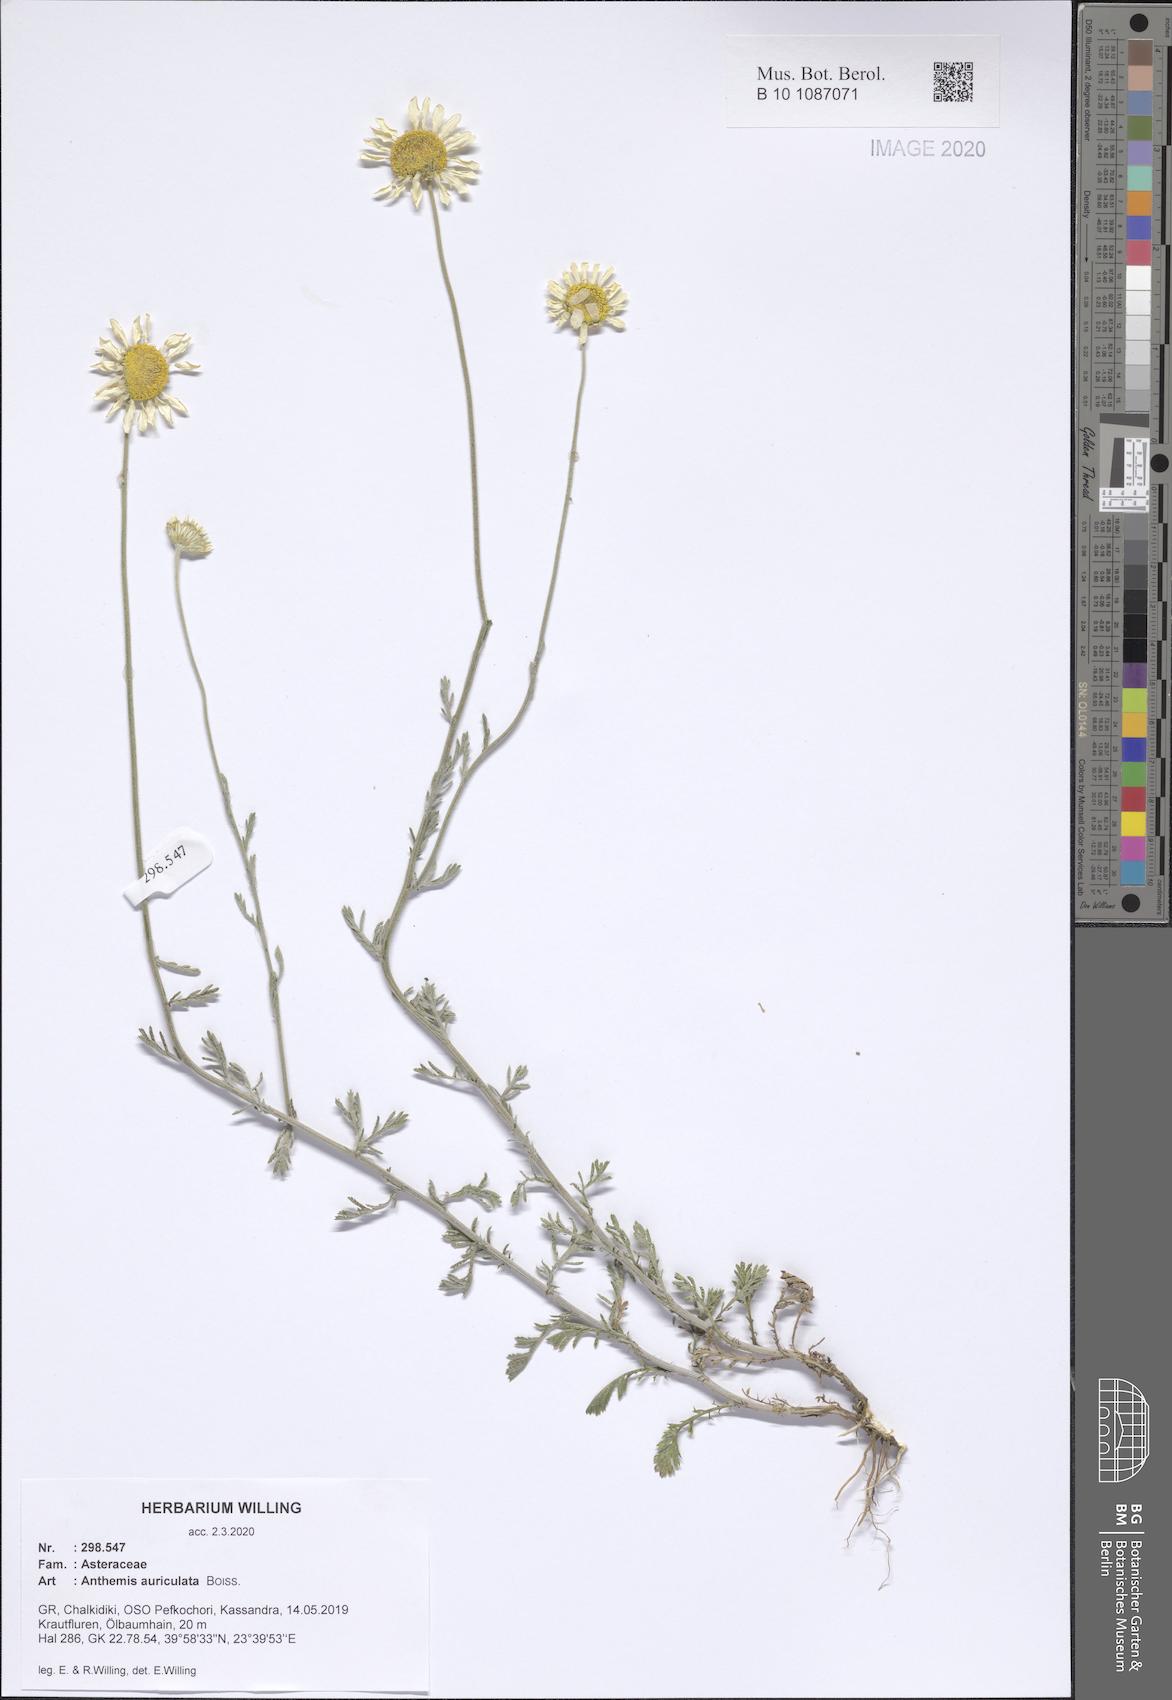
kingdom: Plantae
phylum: Tracheophyta
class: Magnoliopsida
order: Asterales
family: Asteraceae
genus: Anthemis
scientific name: Anthemis auriculata
